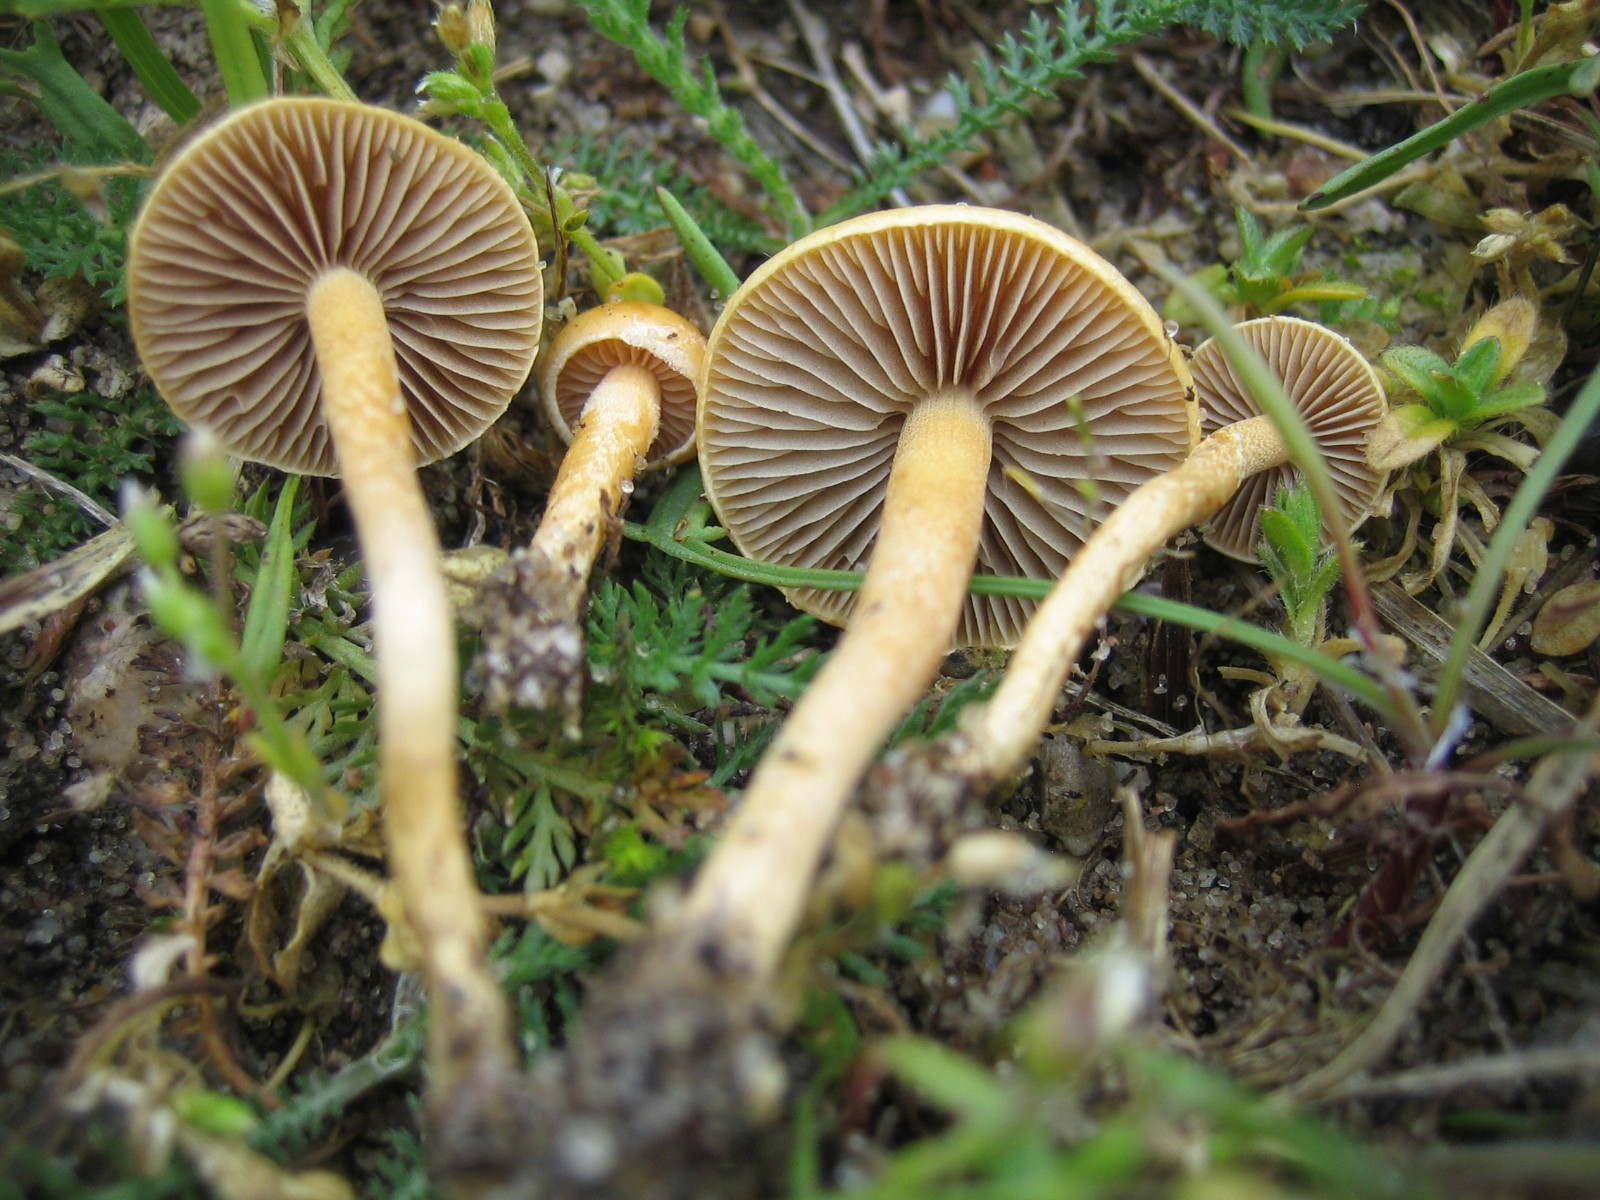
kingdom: Fungi
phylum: Basidiomycota
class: Agaricomycetes
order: Agaricales
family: Strophariaceae
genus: Agrocybe
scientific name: Agrocybe pediades
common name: almindelig agerhat
